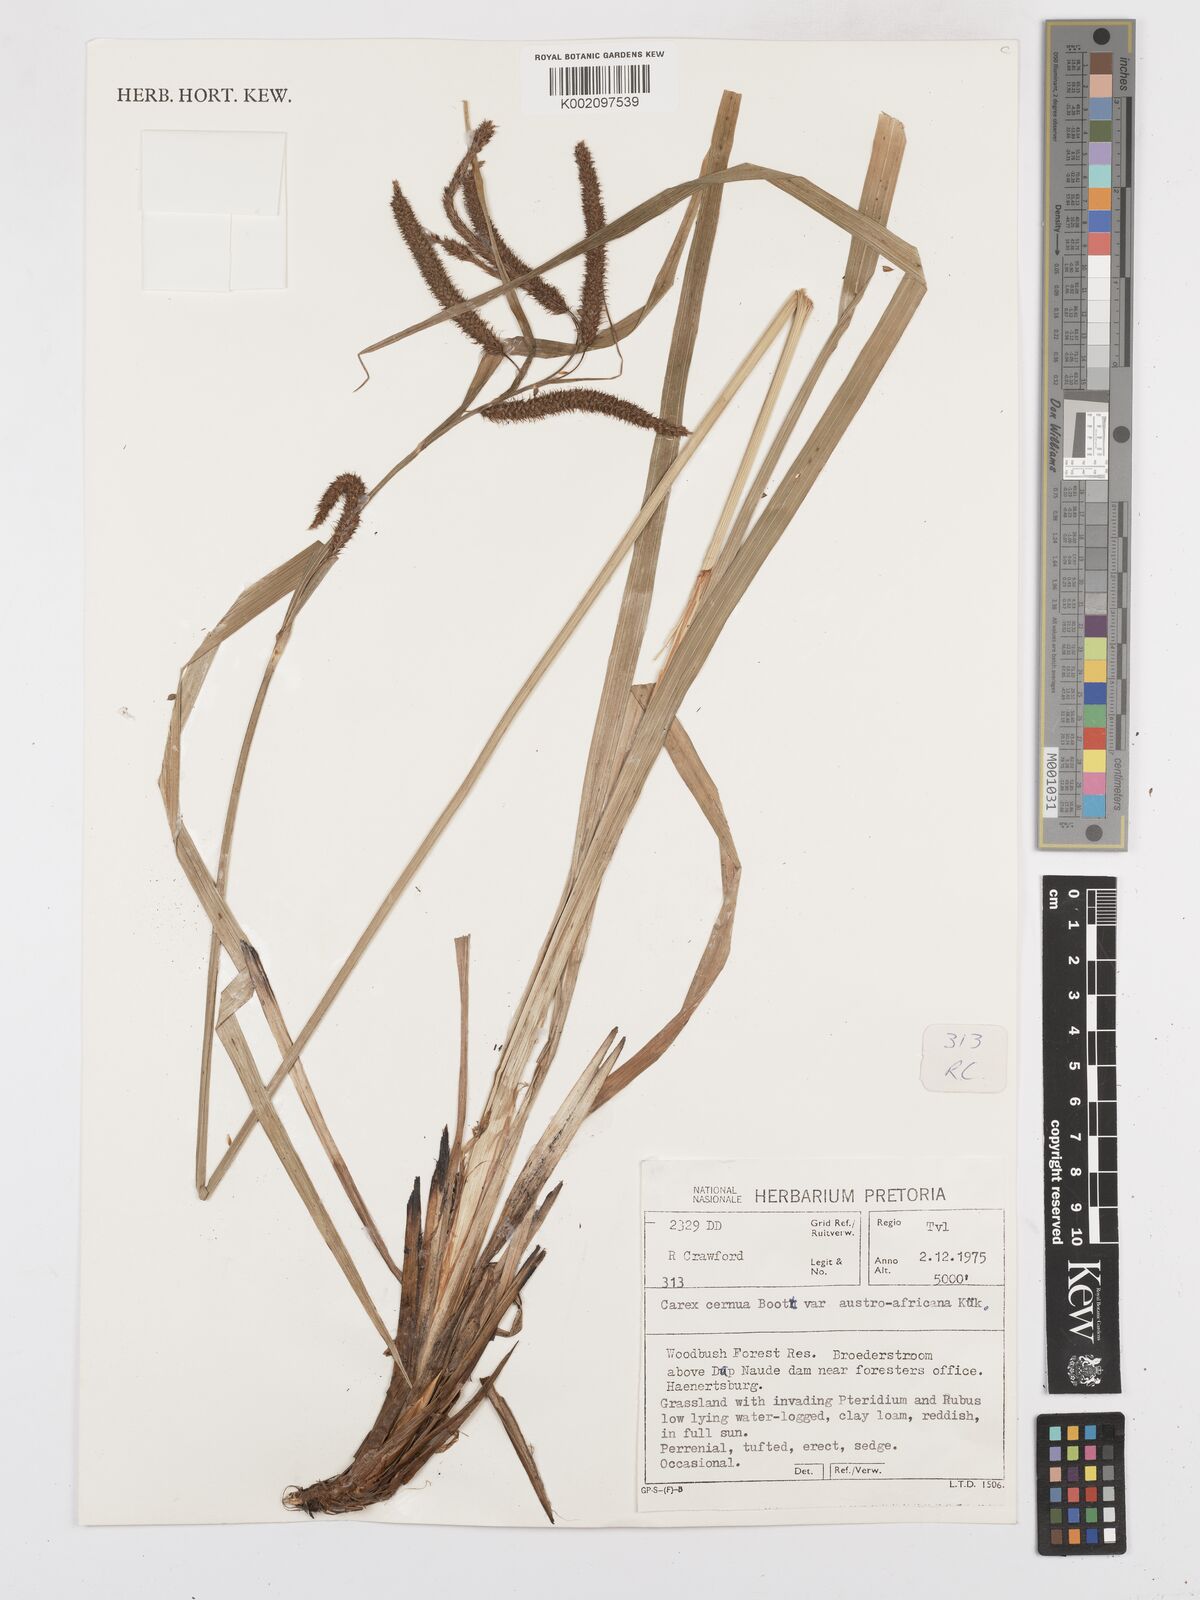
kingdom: Plantae
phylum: Tracheophyta
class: Liliopsida
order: Poales
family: Cyperaceae
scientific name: Cyperaceae
